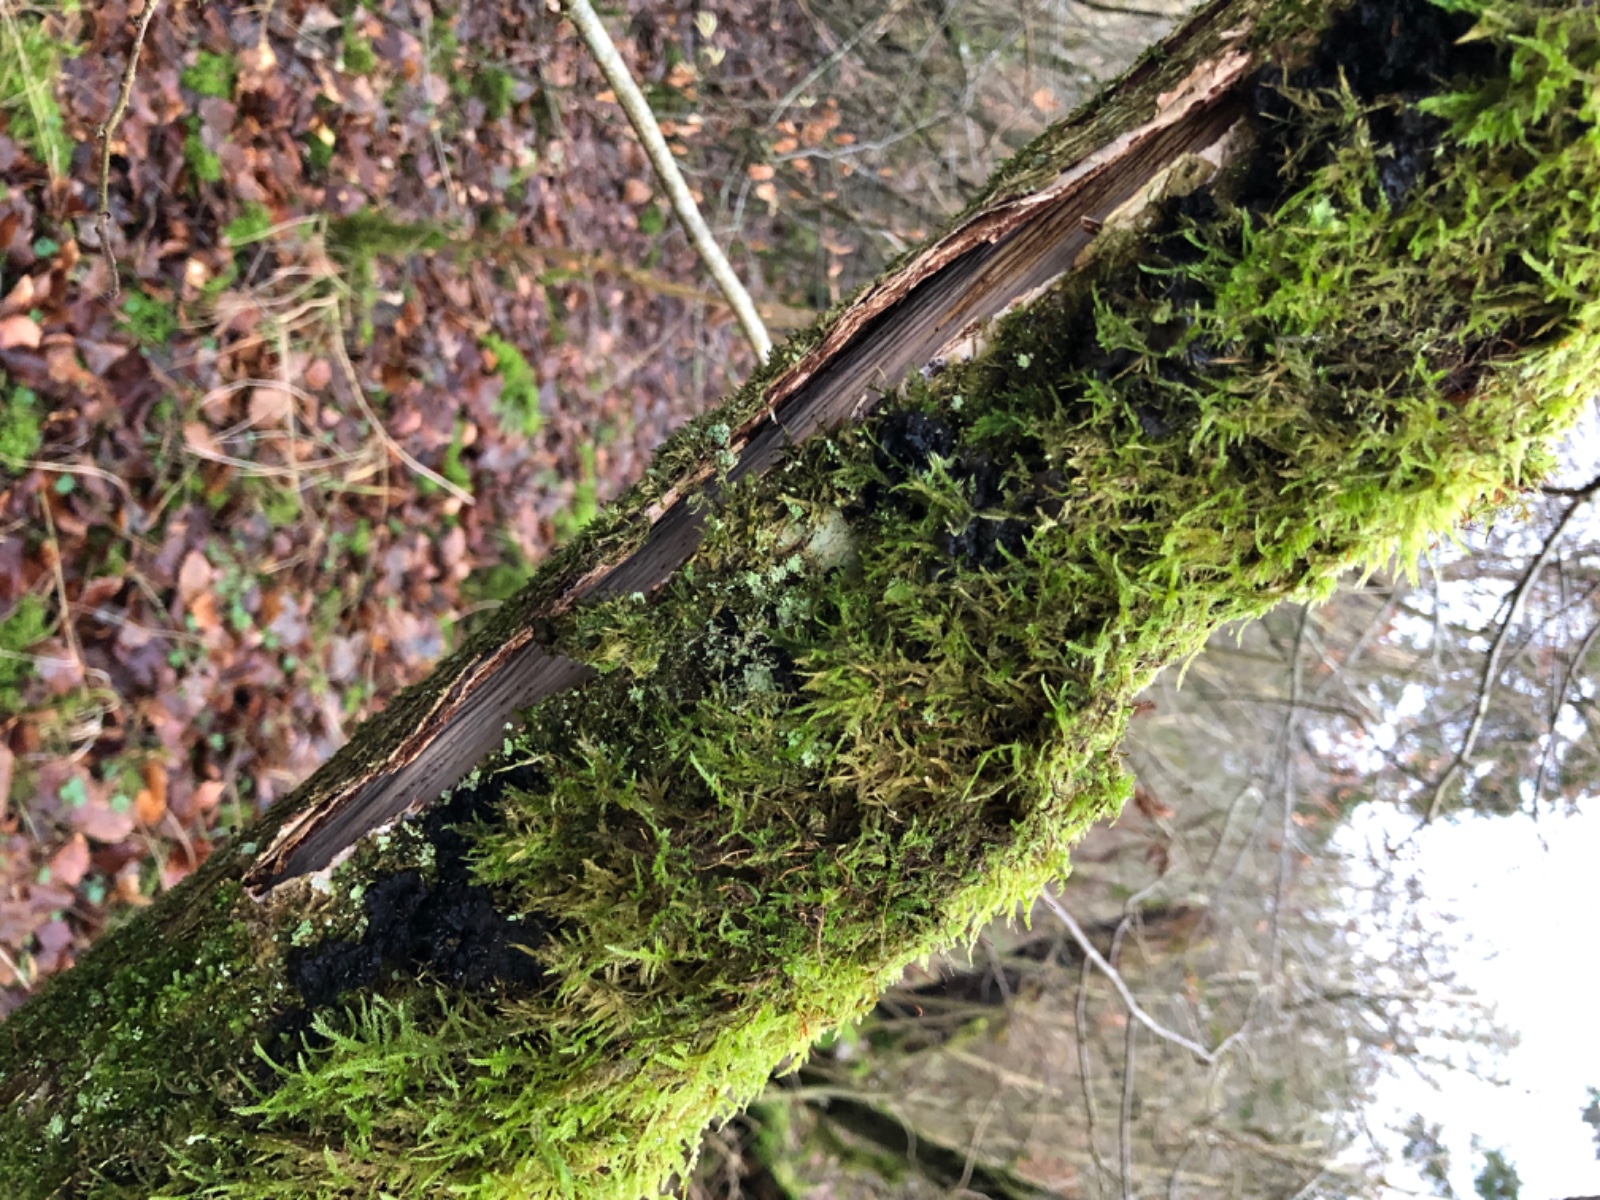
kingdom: Fungi
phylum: Basidiomycota
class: Agaricomycetes
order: Corticiales
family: Vuilleminiaceae
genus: Vuilleminia
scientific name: Vuilleminia coryli
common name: hassel-barksprænger
